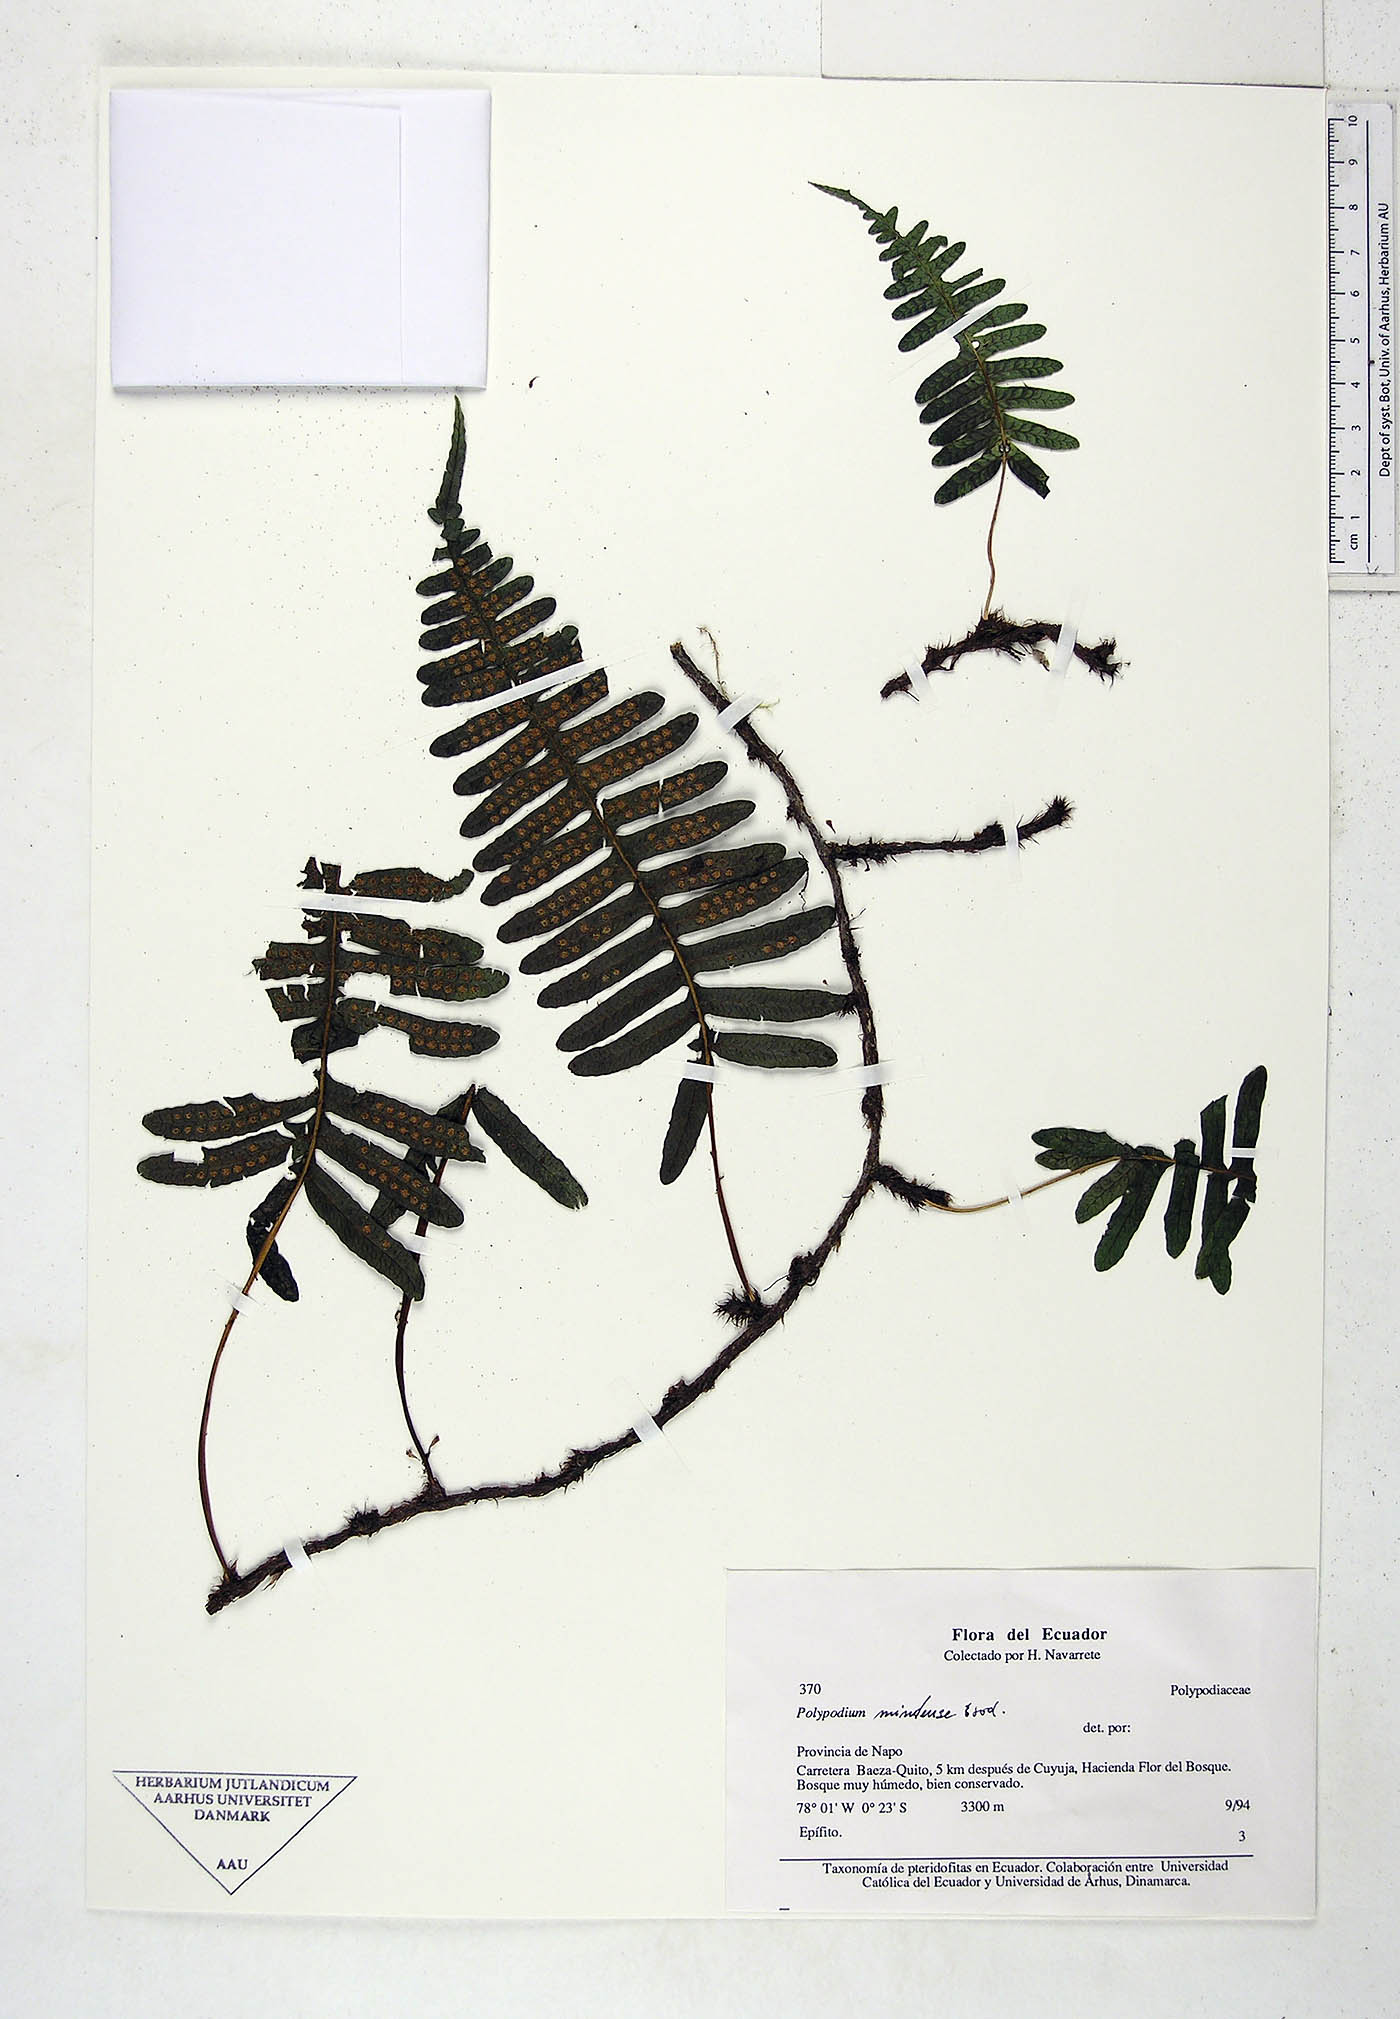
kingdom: Plantae
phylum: Tracheophyta
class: Polypodiopsida
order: Polypodiales
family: Polypodiaceae
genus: Serpocaulon
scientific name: Serpocaulon eleutherophlebium
